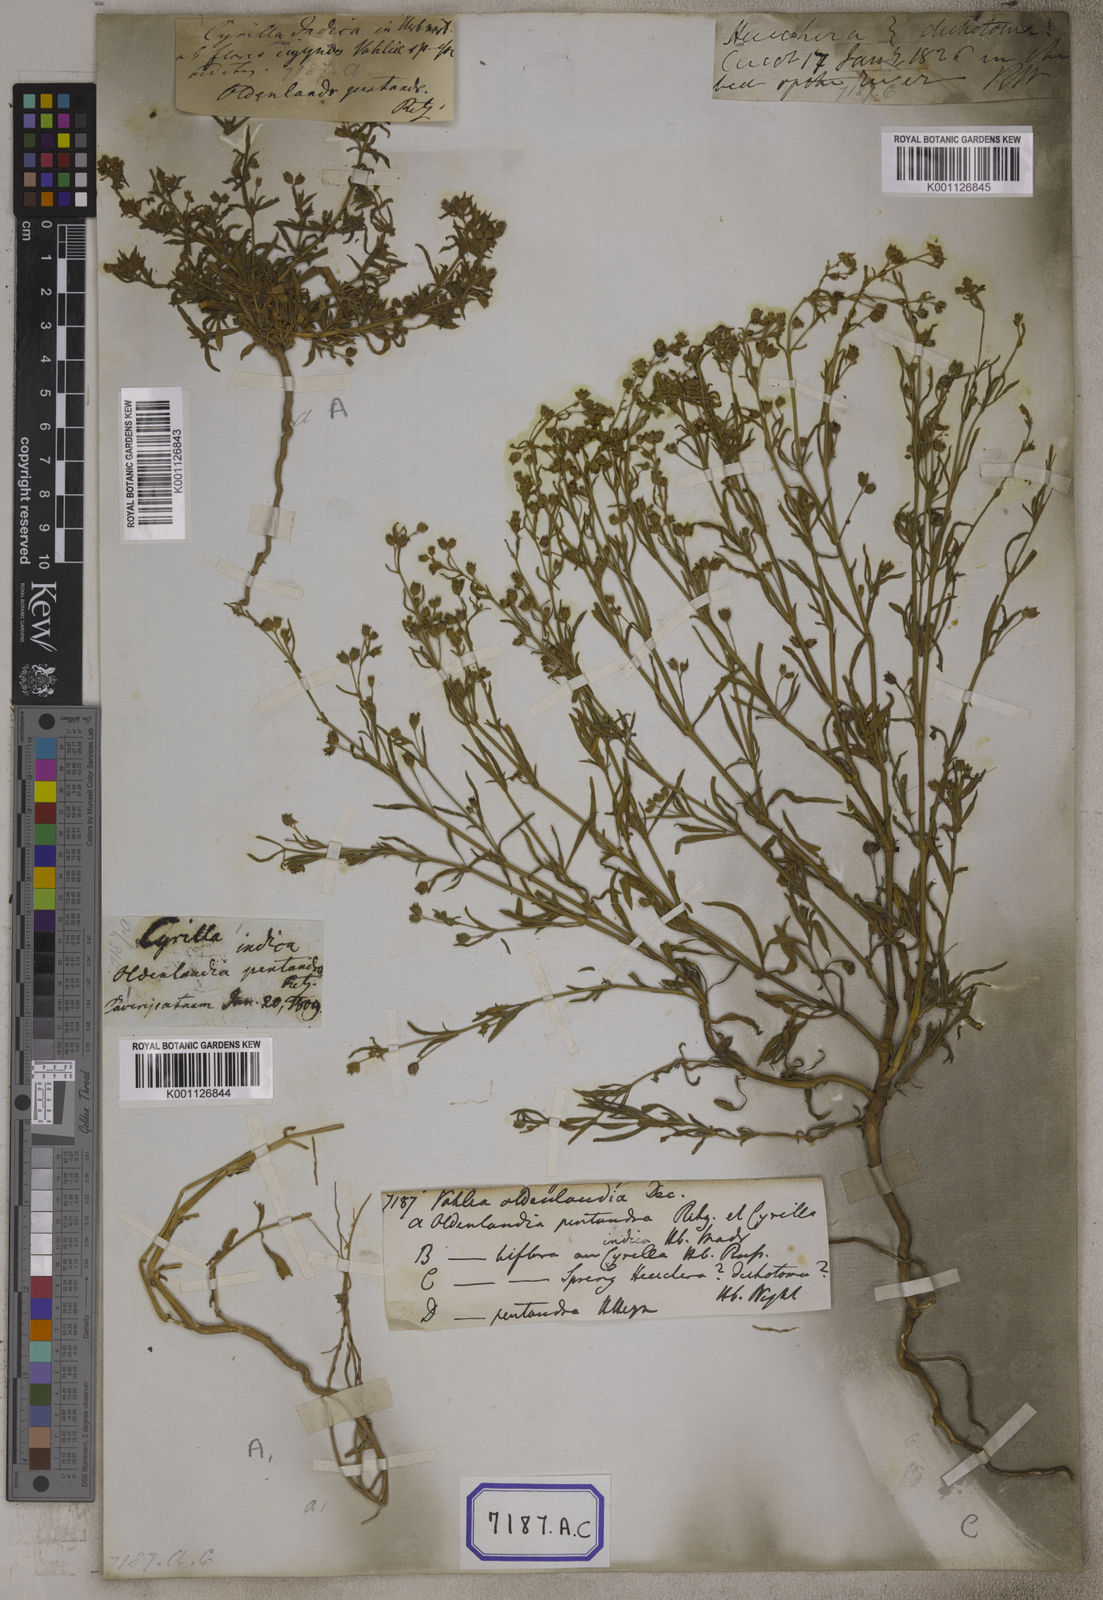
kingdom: Plantae
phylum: Tracheophyta
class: Magnoliopsida
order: Vahliales
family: Vahliaceae
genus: Vahlia
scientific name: Vahlia dichotoma
